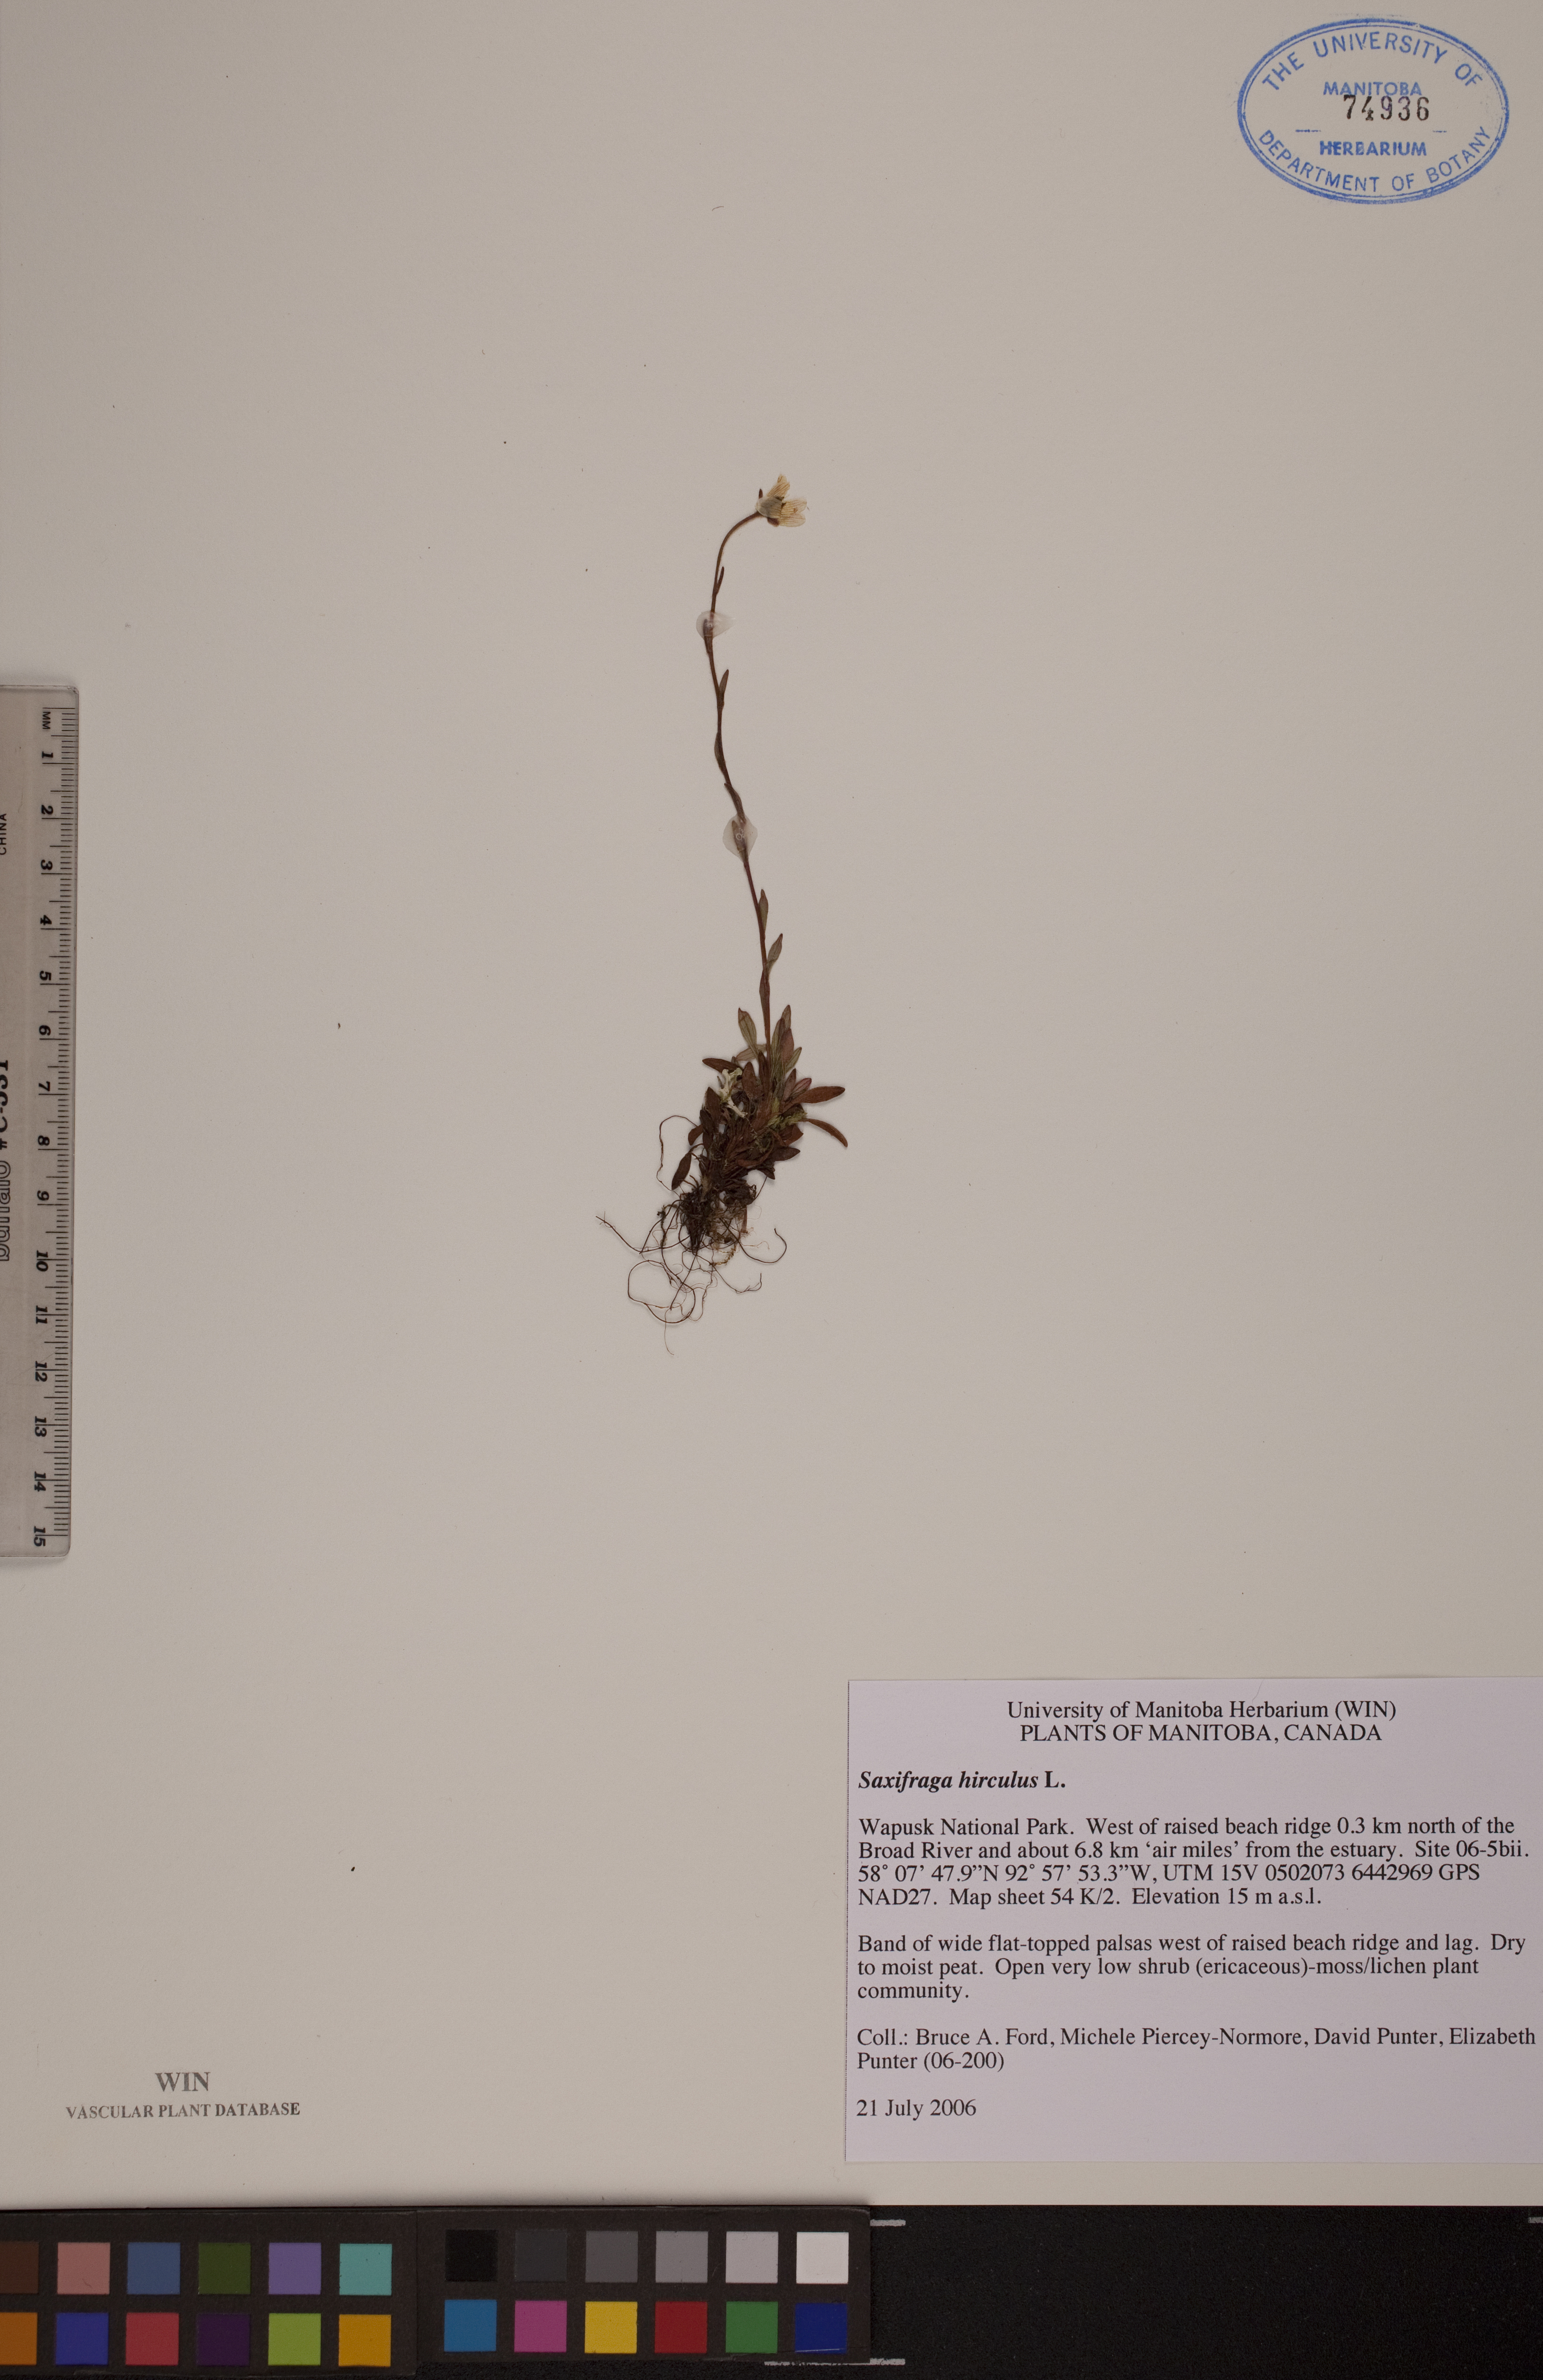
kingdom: Plantae
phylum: Tracheophyta
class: Magnoliopsida
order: Saxifragales
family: Saxifragaceae
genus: Saxifraga
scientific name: Saxifraga hirculus
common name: Yellow marsh saxifrage
